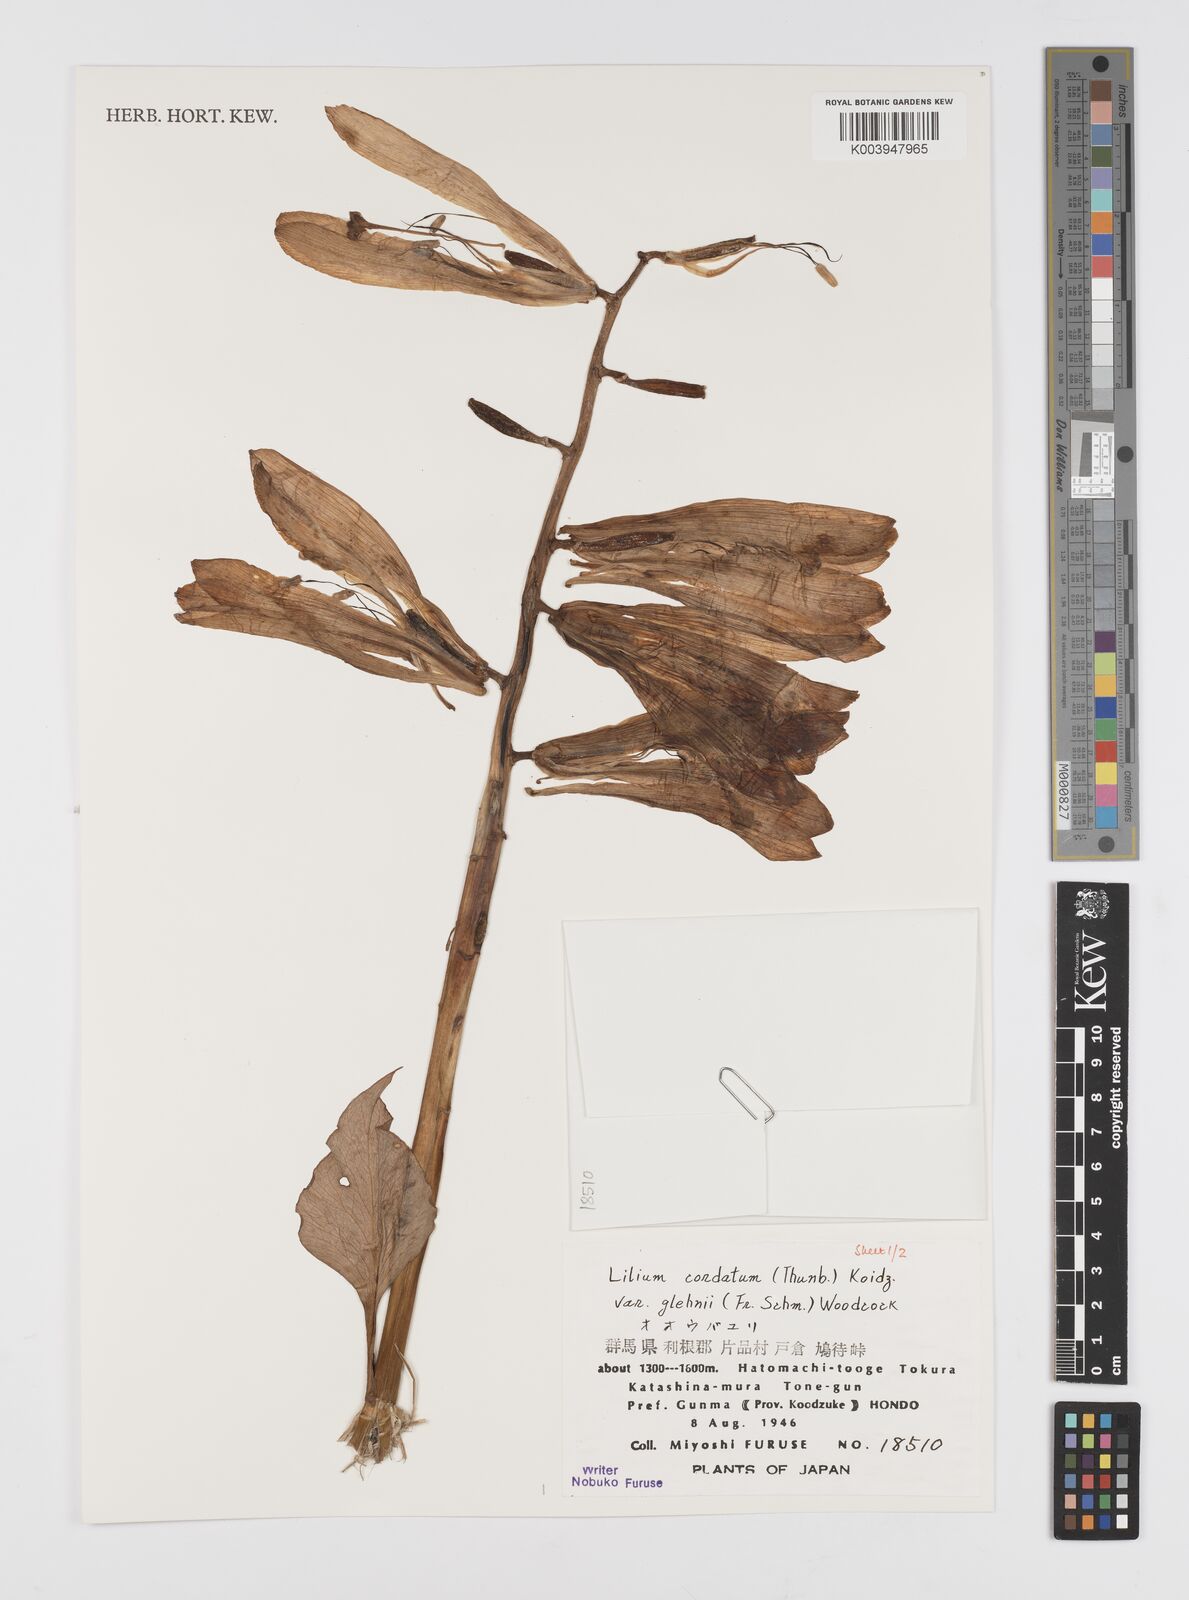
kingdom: Plantae
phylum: Tracheophyta
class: Liliopsida
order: Liliales
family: Liliaceae
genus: Cardiocrinum
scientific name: Cardiocrinum cordatum
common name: Lily
